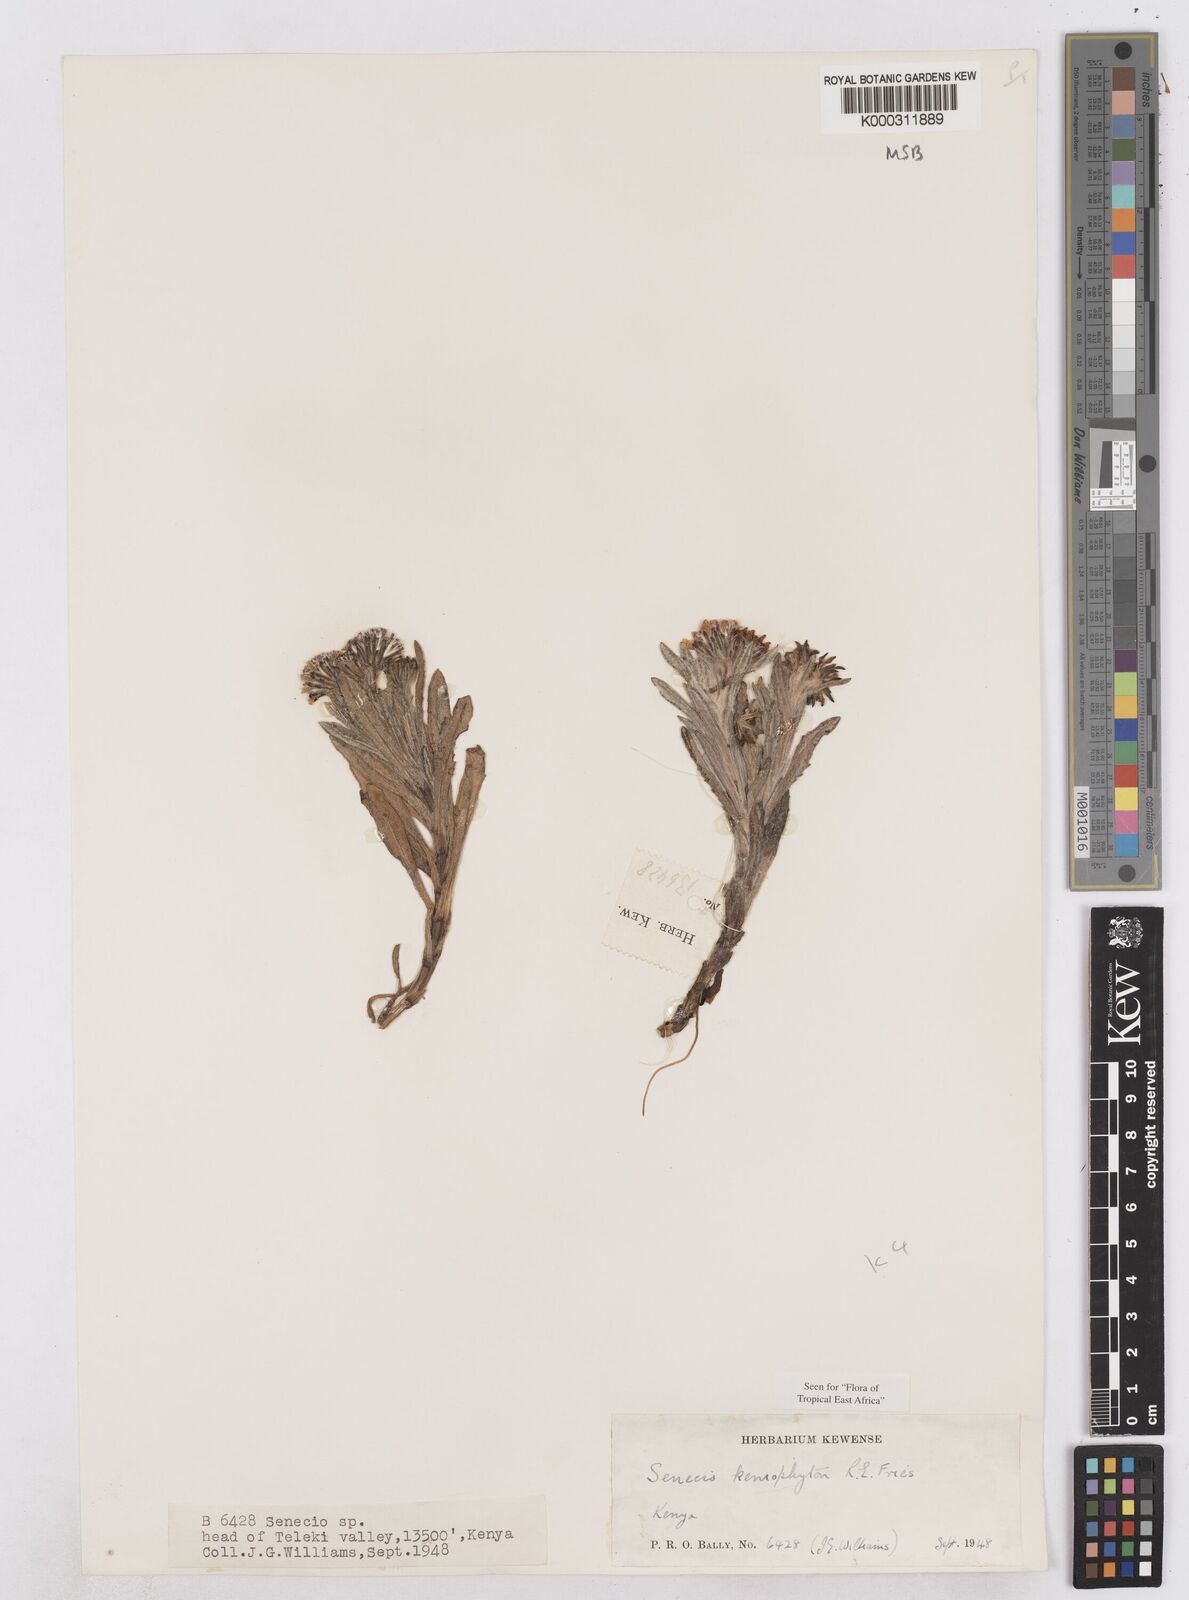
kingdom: Plantae
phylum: Tracheophyta
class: Magnoliopsida
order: Asterales
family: Asteraceae
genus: Senecio
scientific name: Senecio keniophytum
